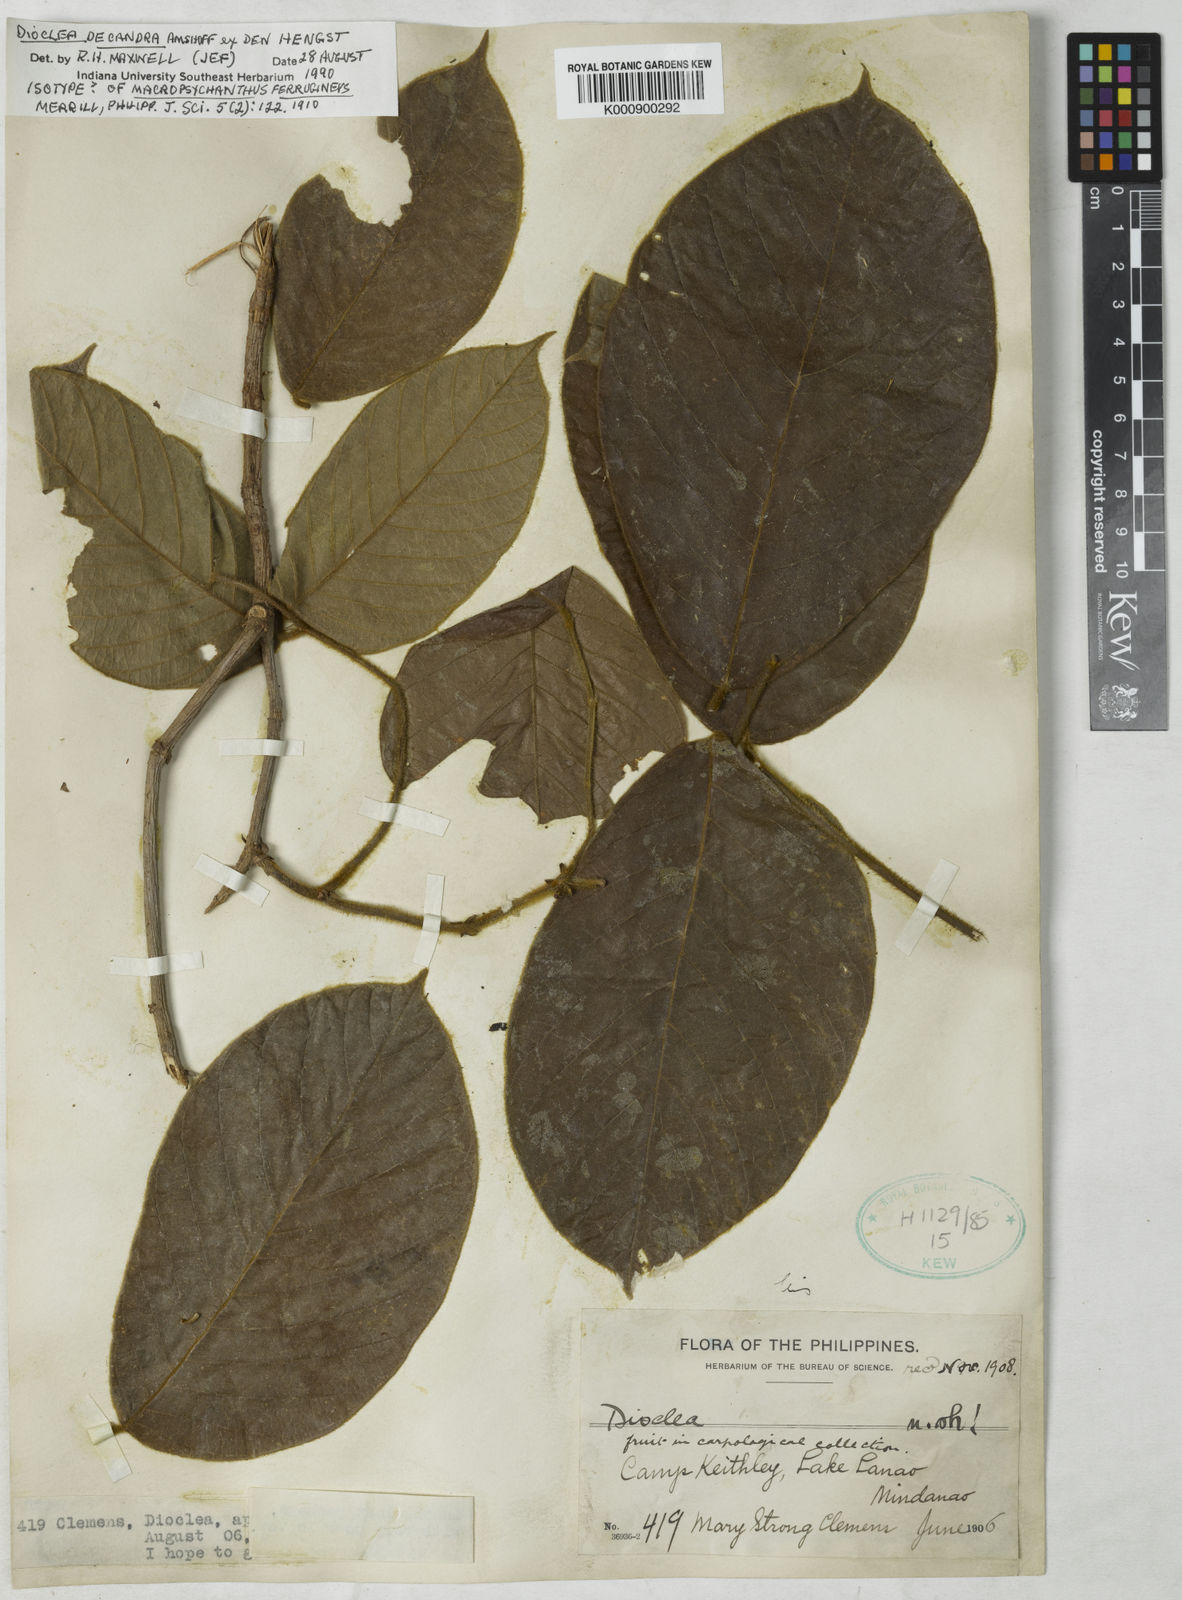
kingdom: Plantae
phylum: Tracheophyta
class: Magnoliopsida
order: Fabales
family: Fabaceae
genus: Macropsychanthus
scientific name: Macropsychanthus ferrugineus
